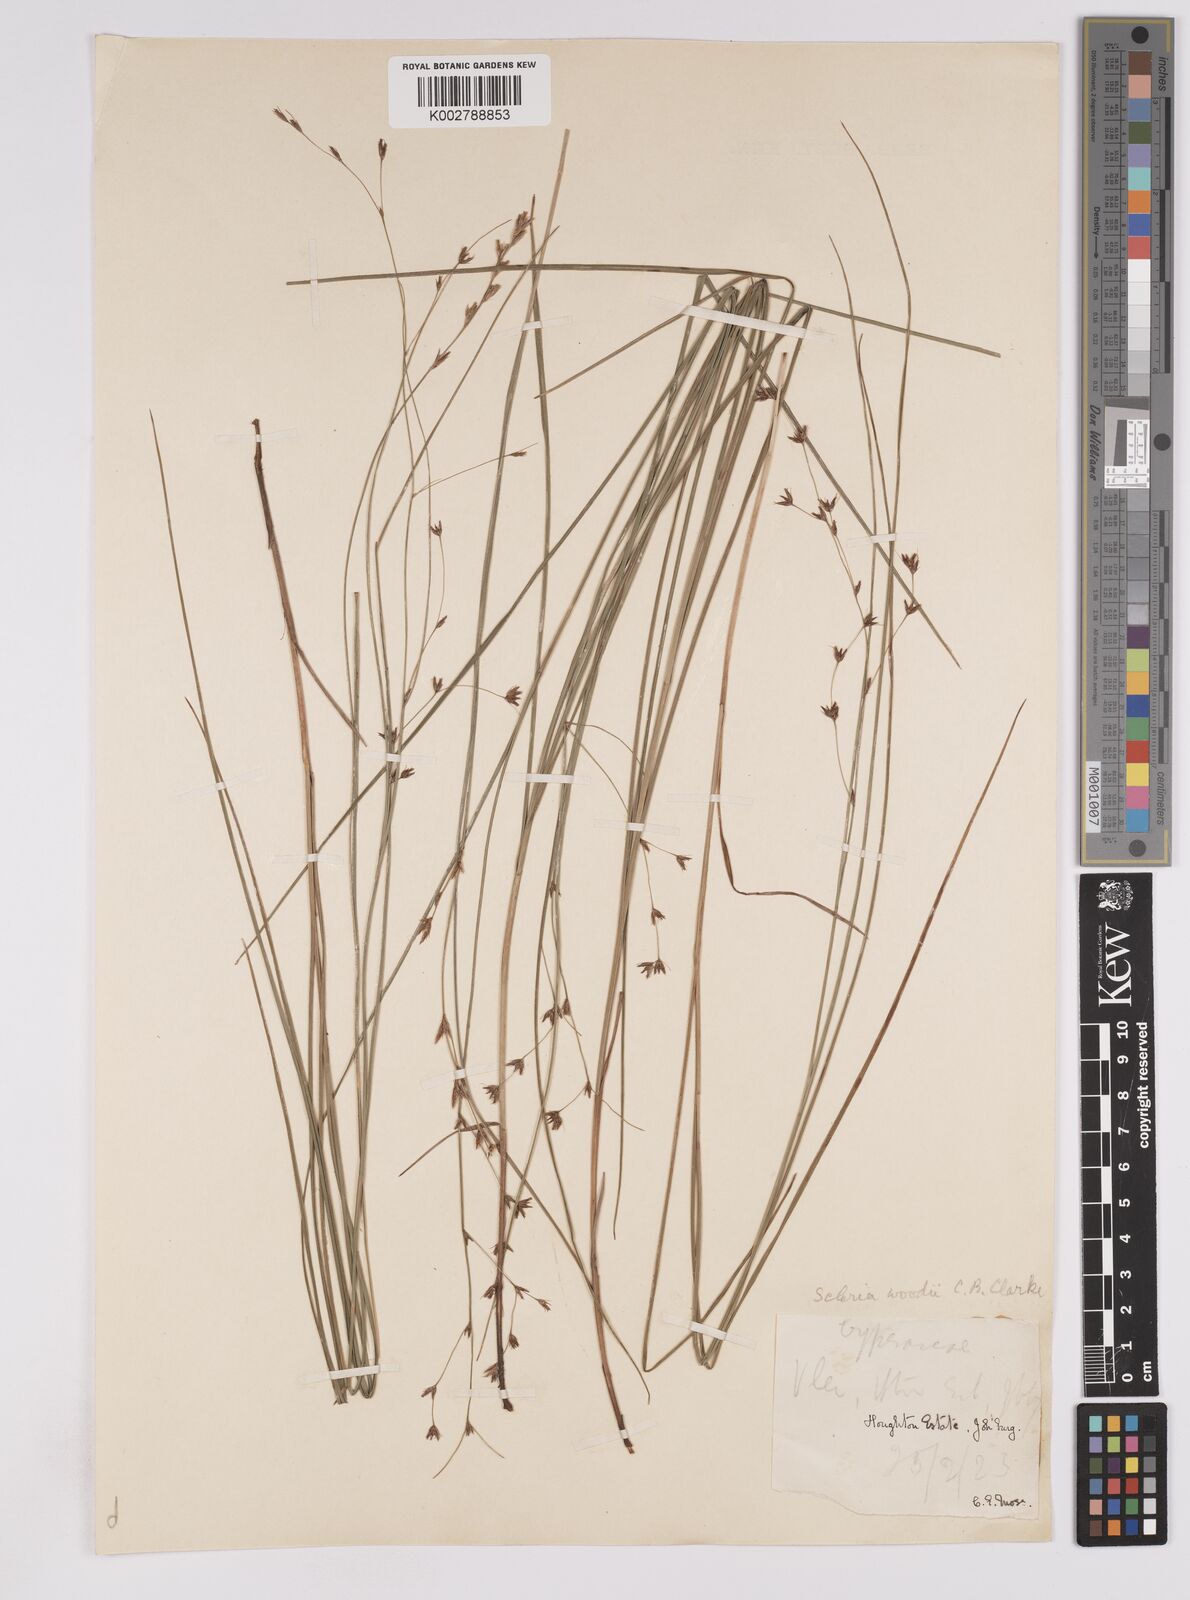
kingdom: Plantae
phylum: Tracheophyta
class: Liliopsida
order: Poales
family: Cyperaceae
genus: Scleria
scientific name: Scleria woodii
